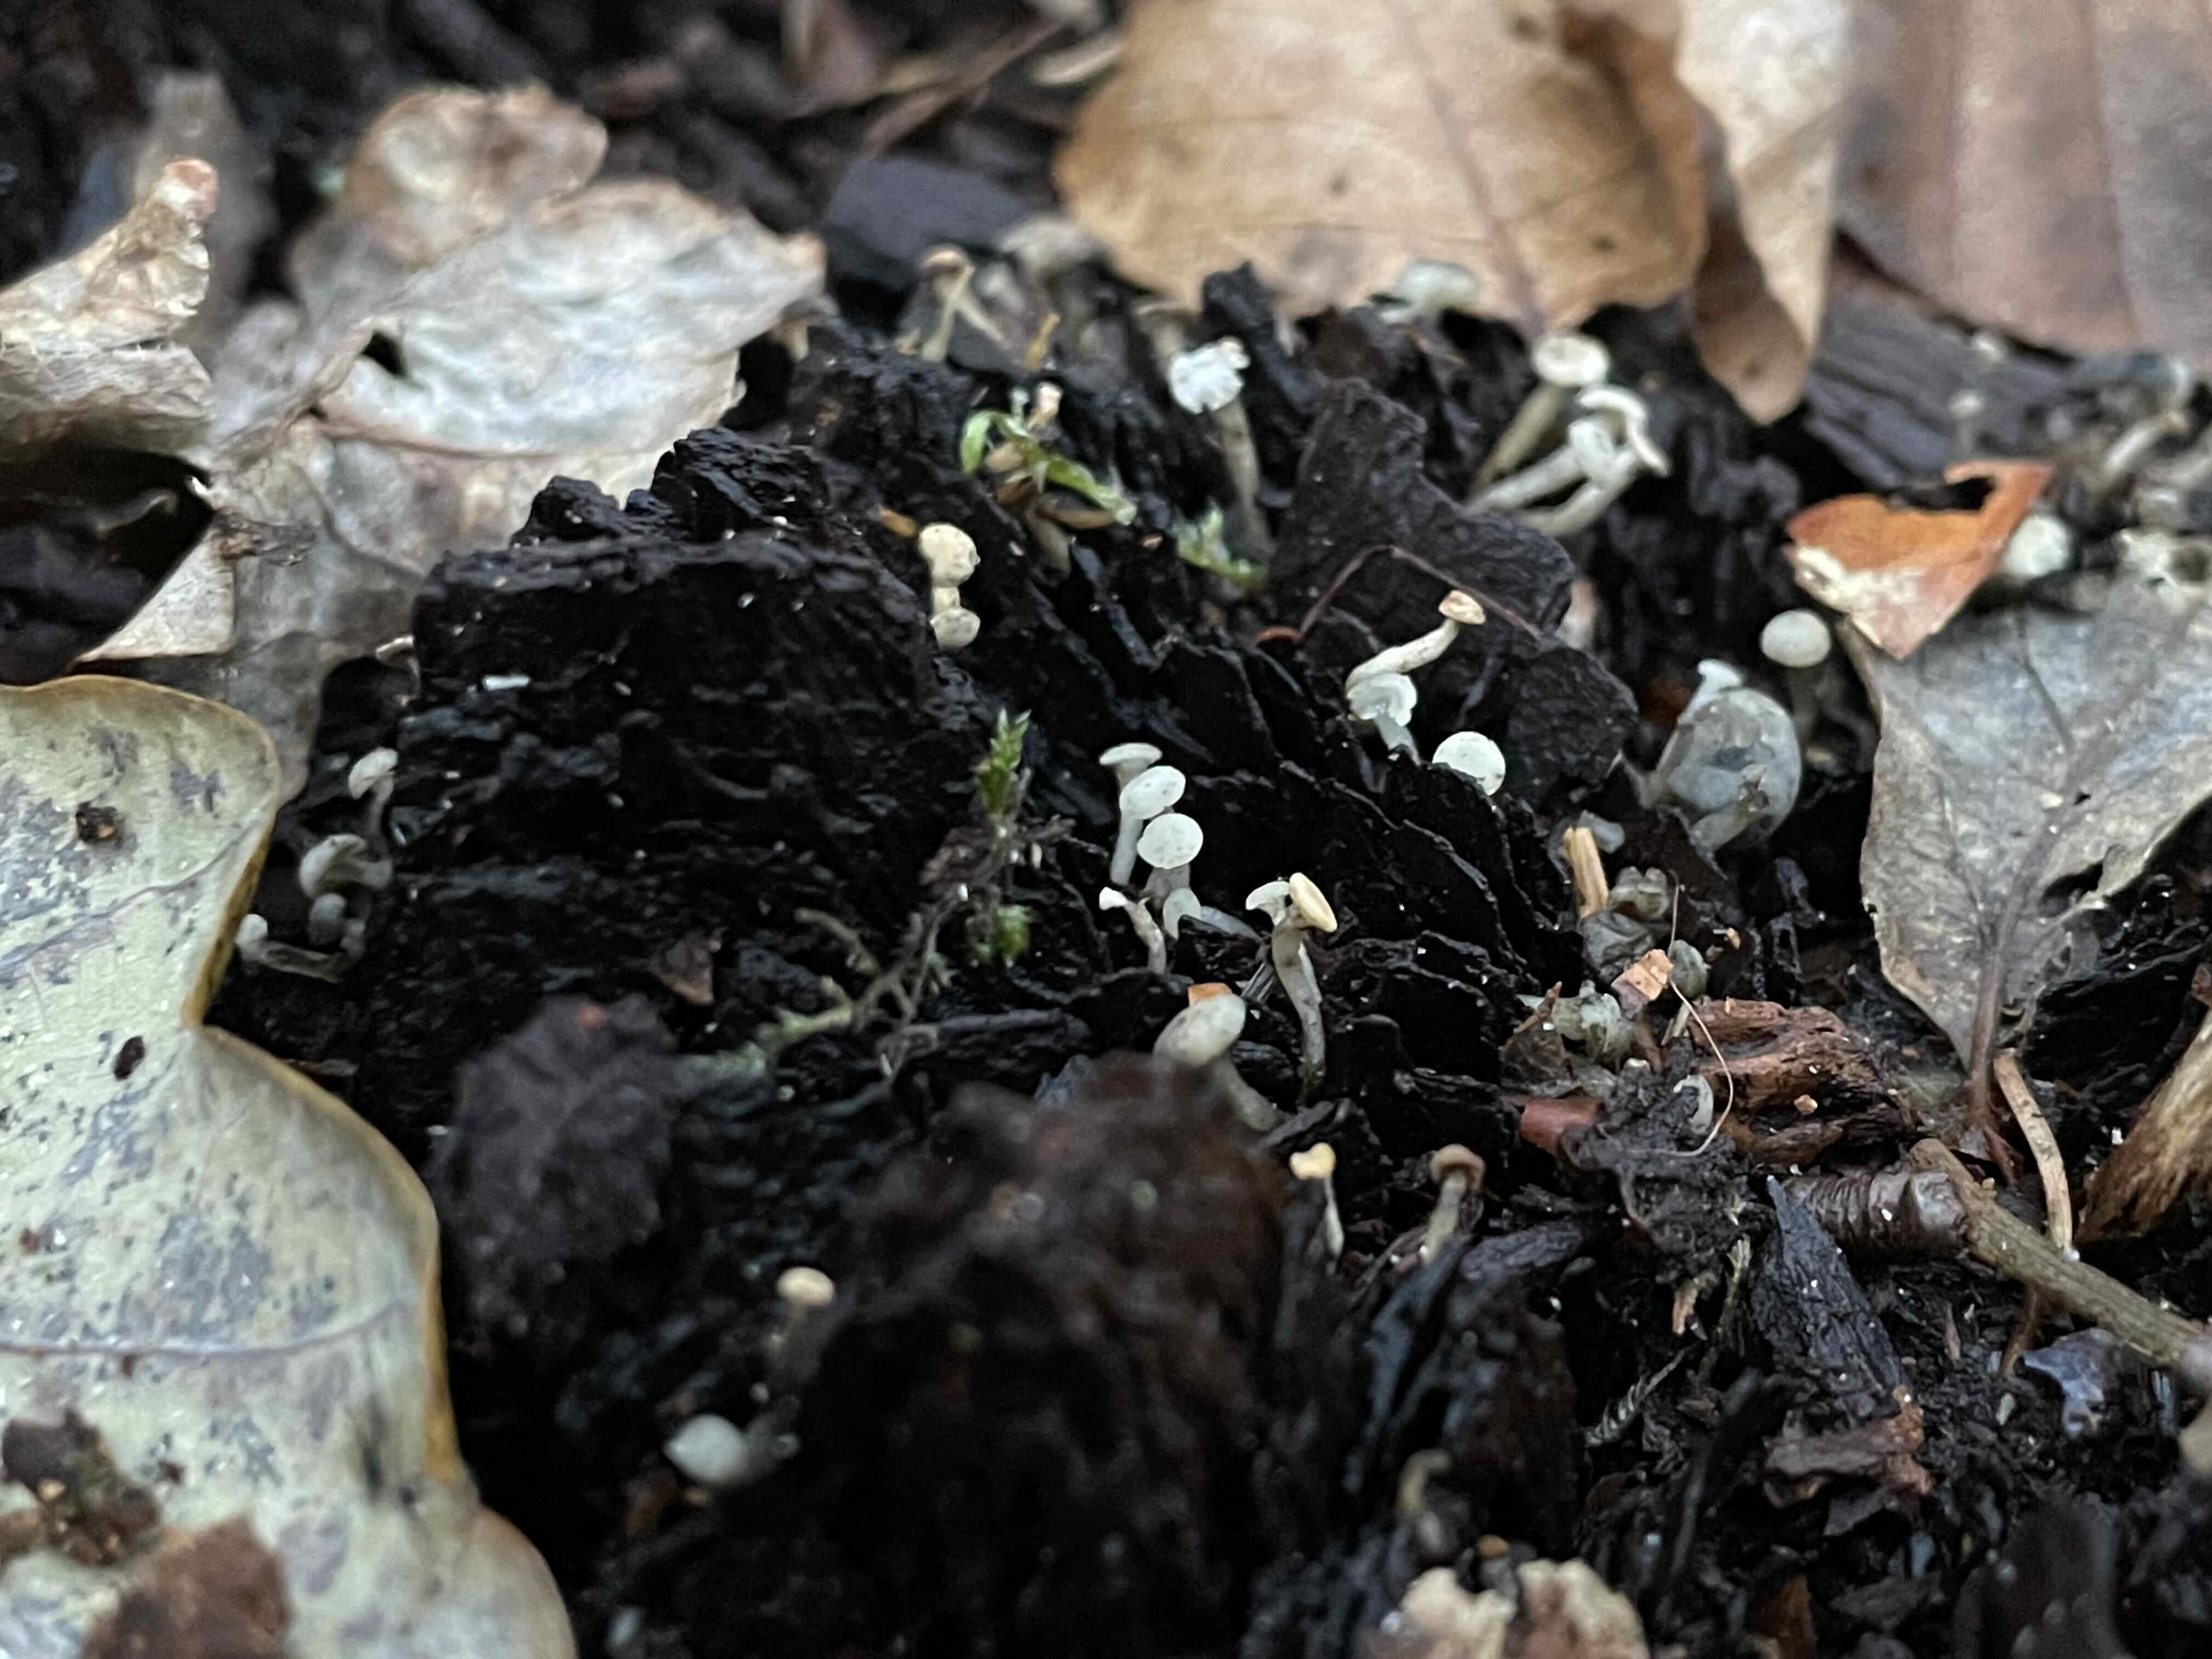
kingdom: Fungi
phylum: Ascomycota
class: Leotiomycetes
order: Helotiales
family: Tricladiaceae
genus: Cudoniella
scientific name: Cudoniella acicularis
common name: ege-dyndskive
